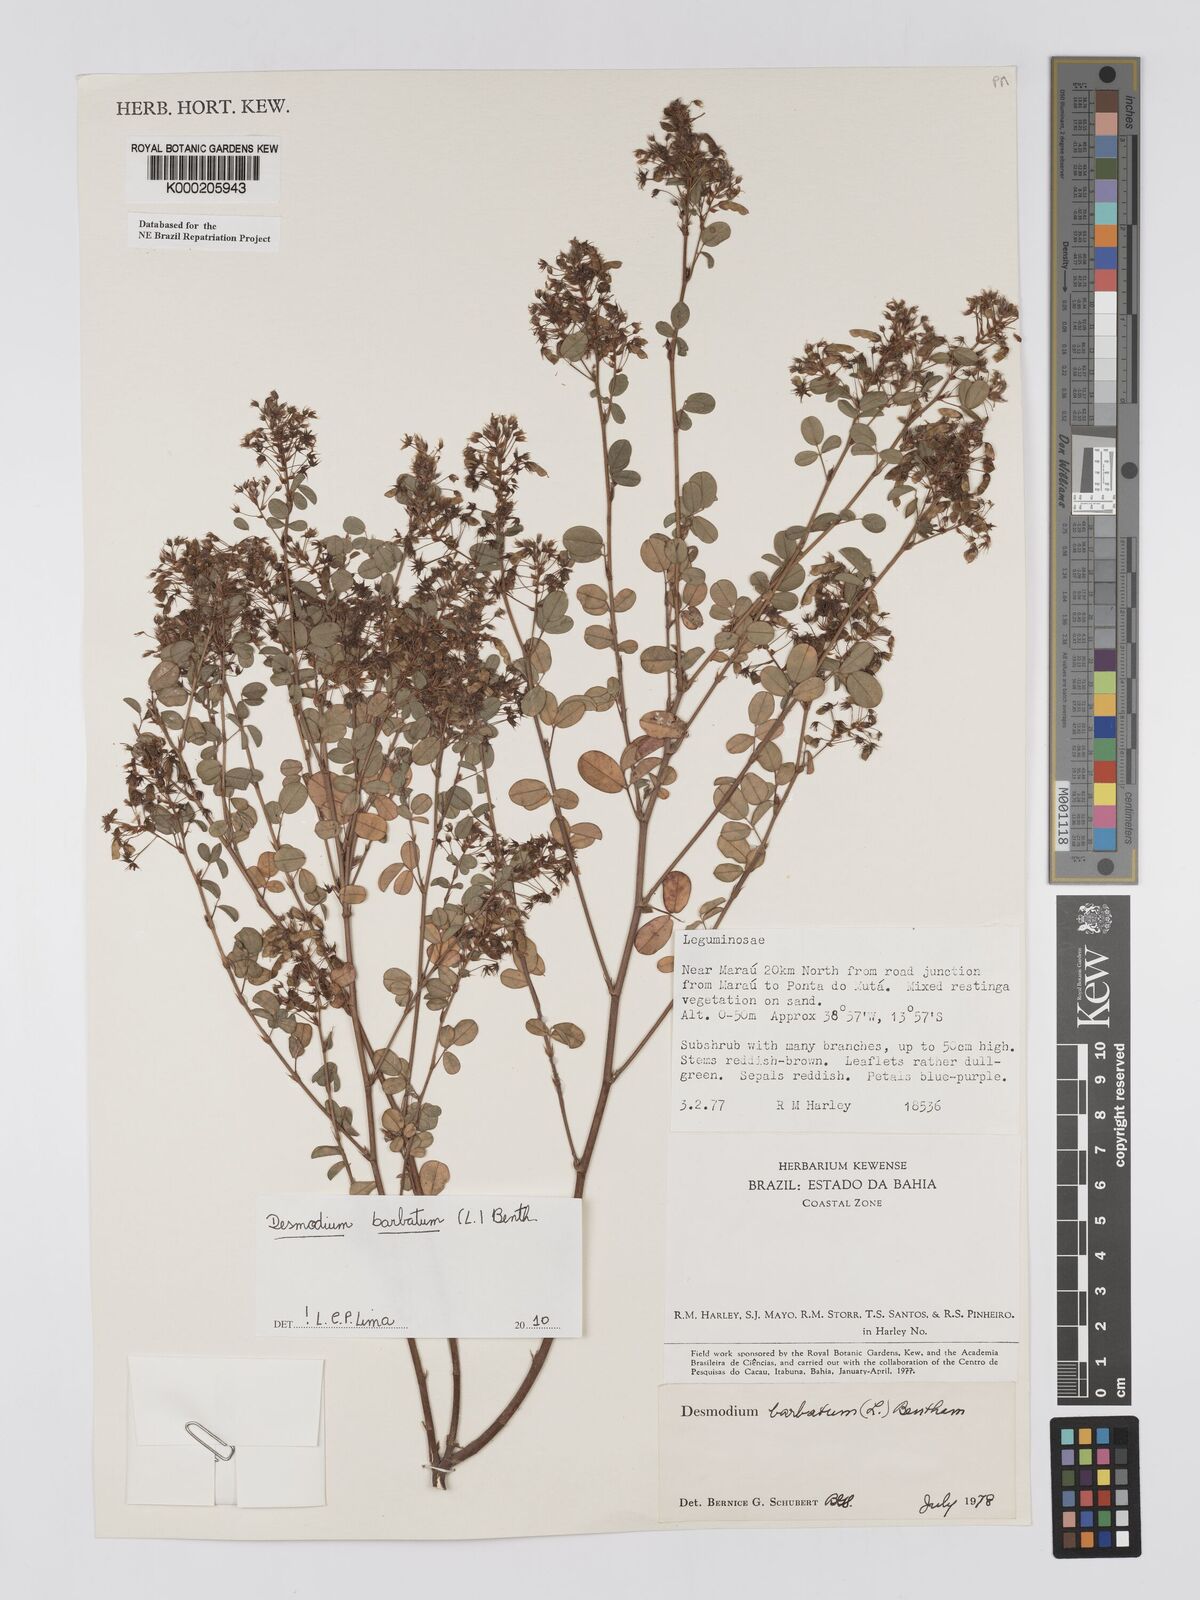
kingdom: Plantae
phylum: Tracheophyta
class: Magnoliopsida
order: Fabales
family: Fabaceae
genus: Grona
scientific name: Grona barbata
